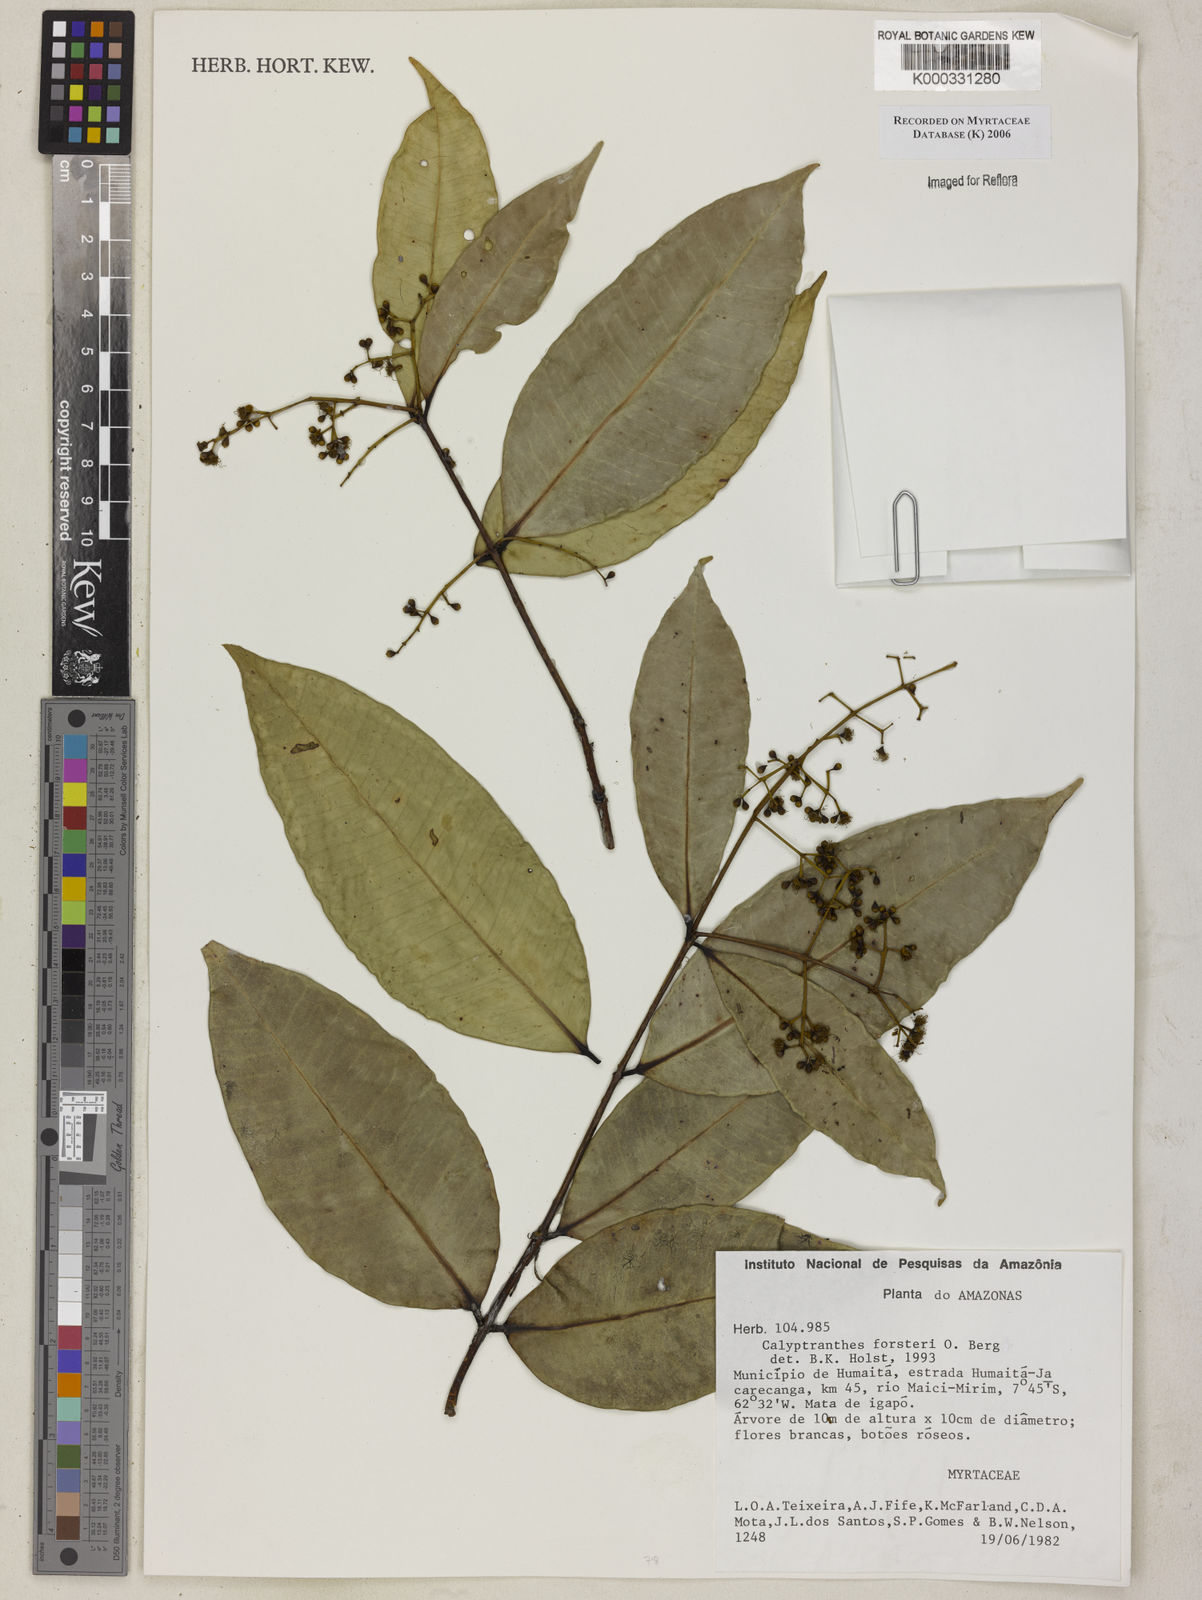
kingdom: Plantae
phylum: Tracheophyta
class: Magnoliopsida
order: Myrtales
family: Myrtaceae
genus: Myrcia
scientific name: Myrcia forsteri
